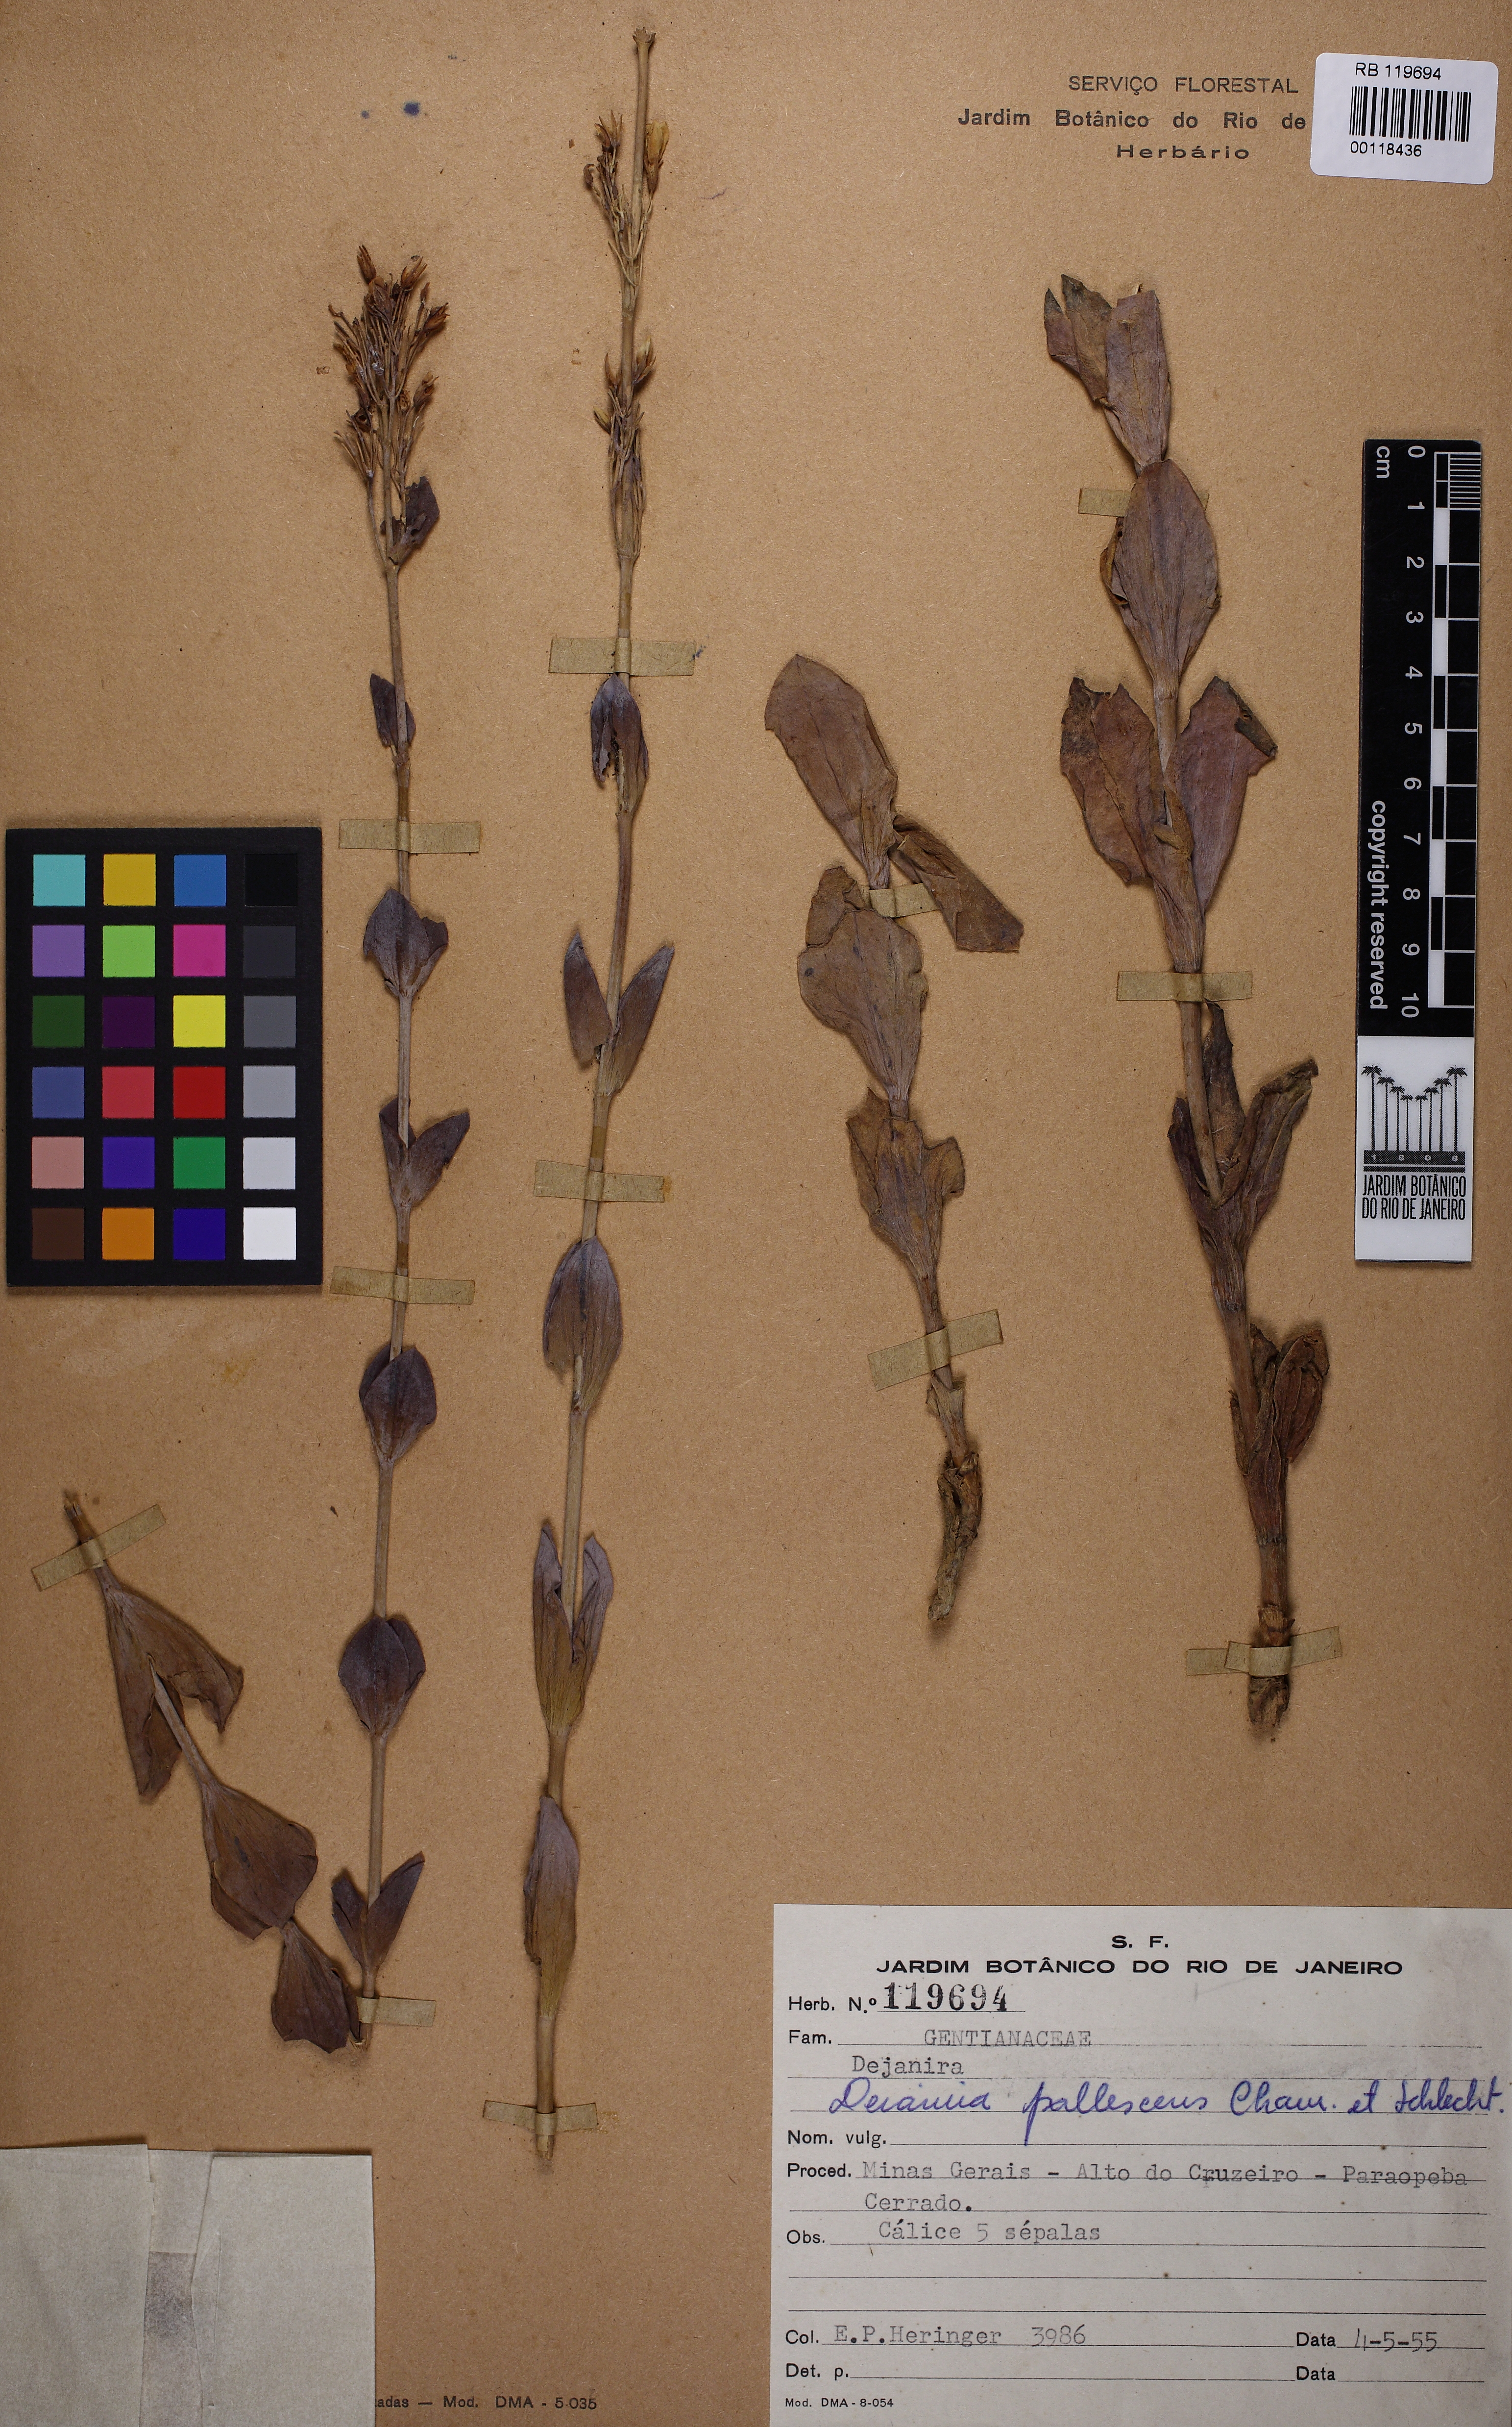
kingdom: Plantae
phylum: Tracheophyta
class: Magnoliopsida
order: Gentianales
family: Gentianaceae
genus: Deianira
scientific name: Deianira pallescens
